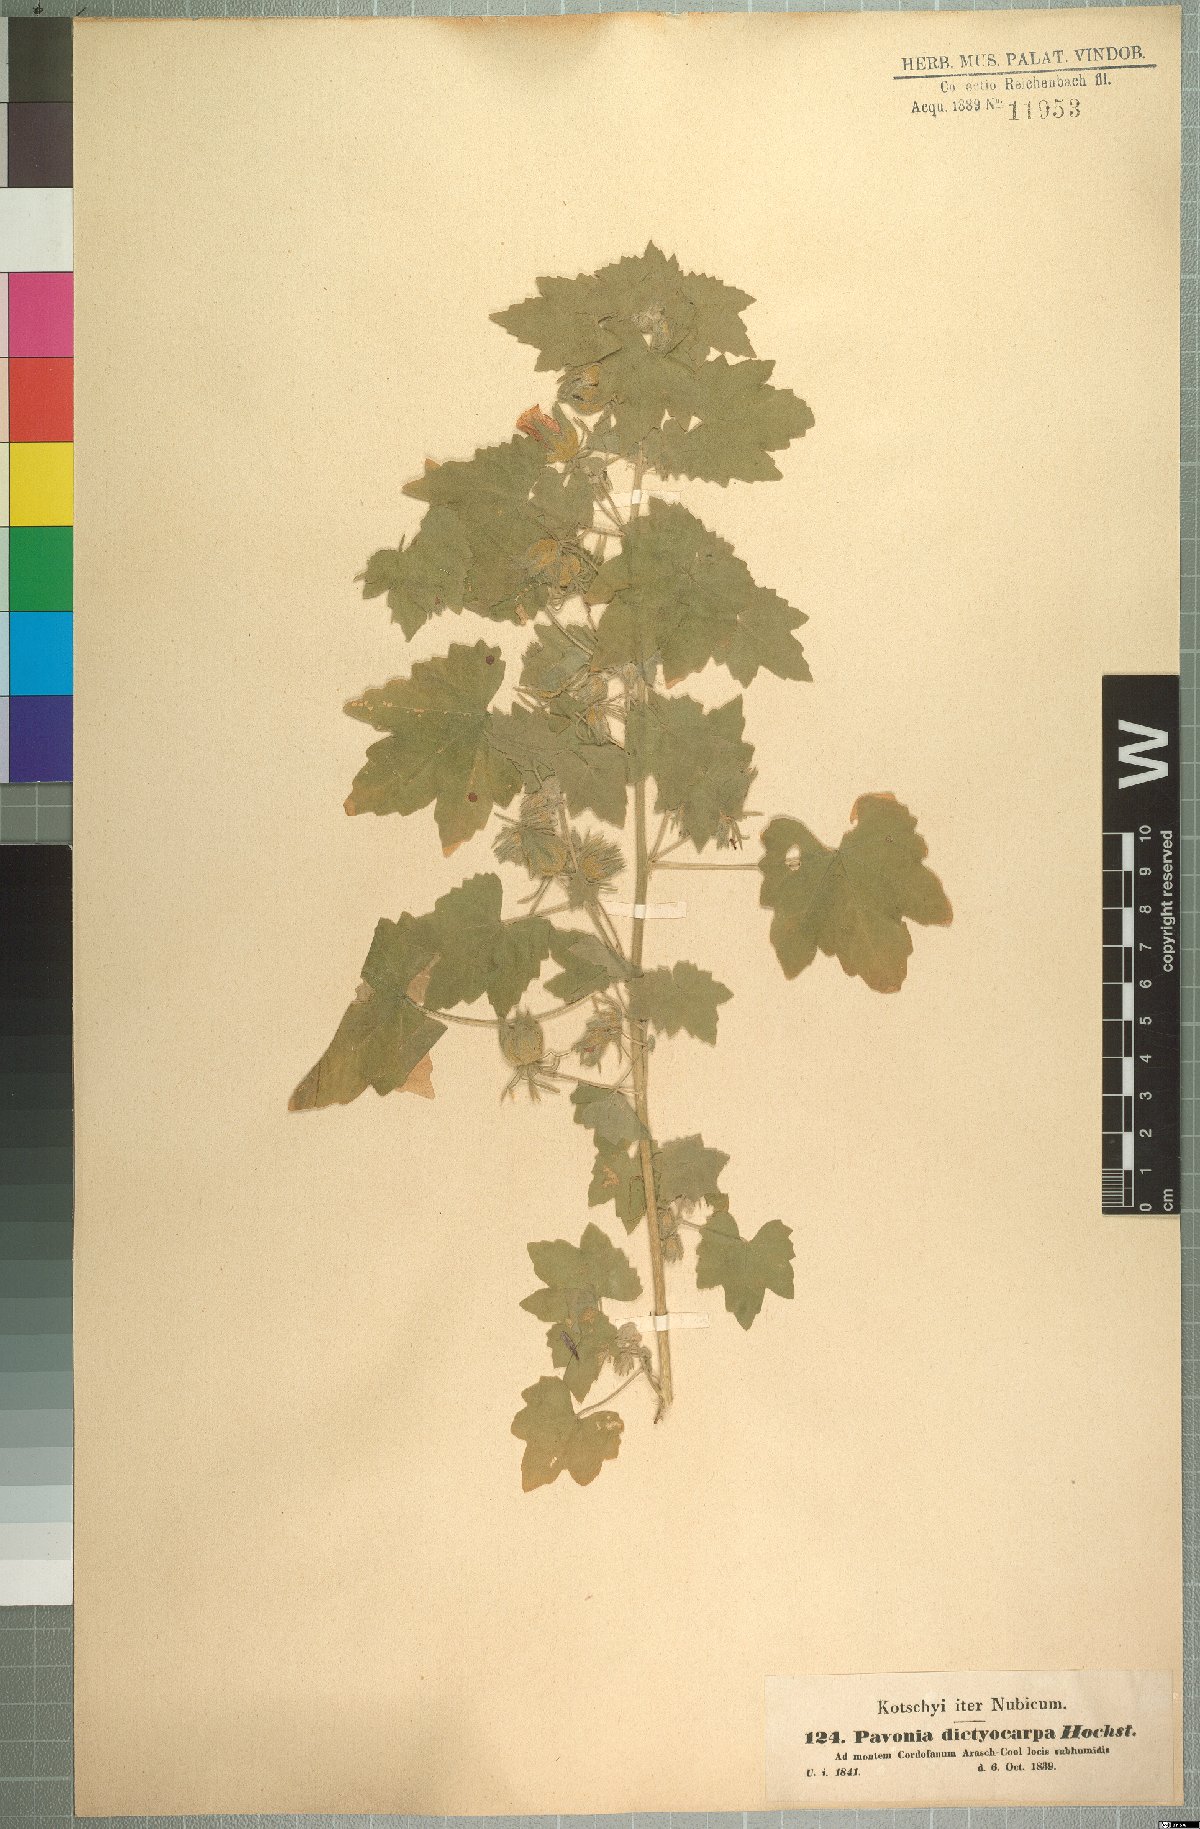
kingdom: Plantae
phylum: Tracheophyta
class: Magnoliopsida
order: Malvales
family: Malvaceae
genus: Roifia
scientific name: Roifia dictyocarpa
